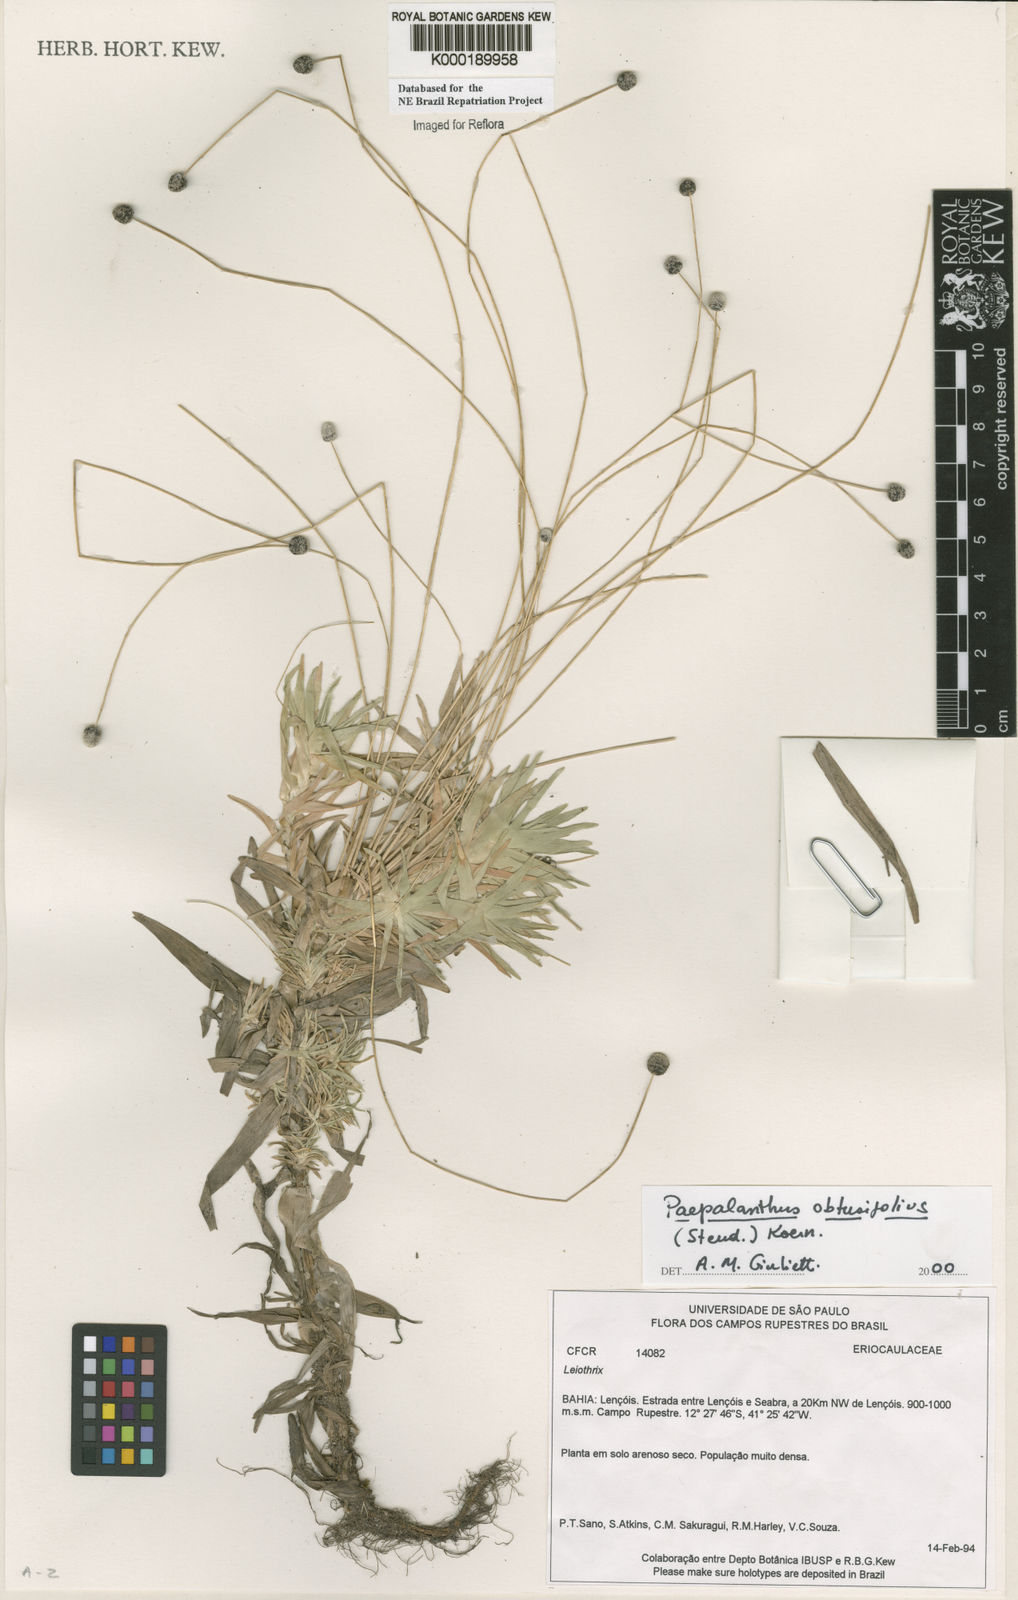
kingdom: Plantae
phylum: Tracheophyta
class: Liliopsida
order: Poales
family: Eriocaulaceae
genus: Paepalanthus
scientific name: Paepalanthus
